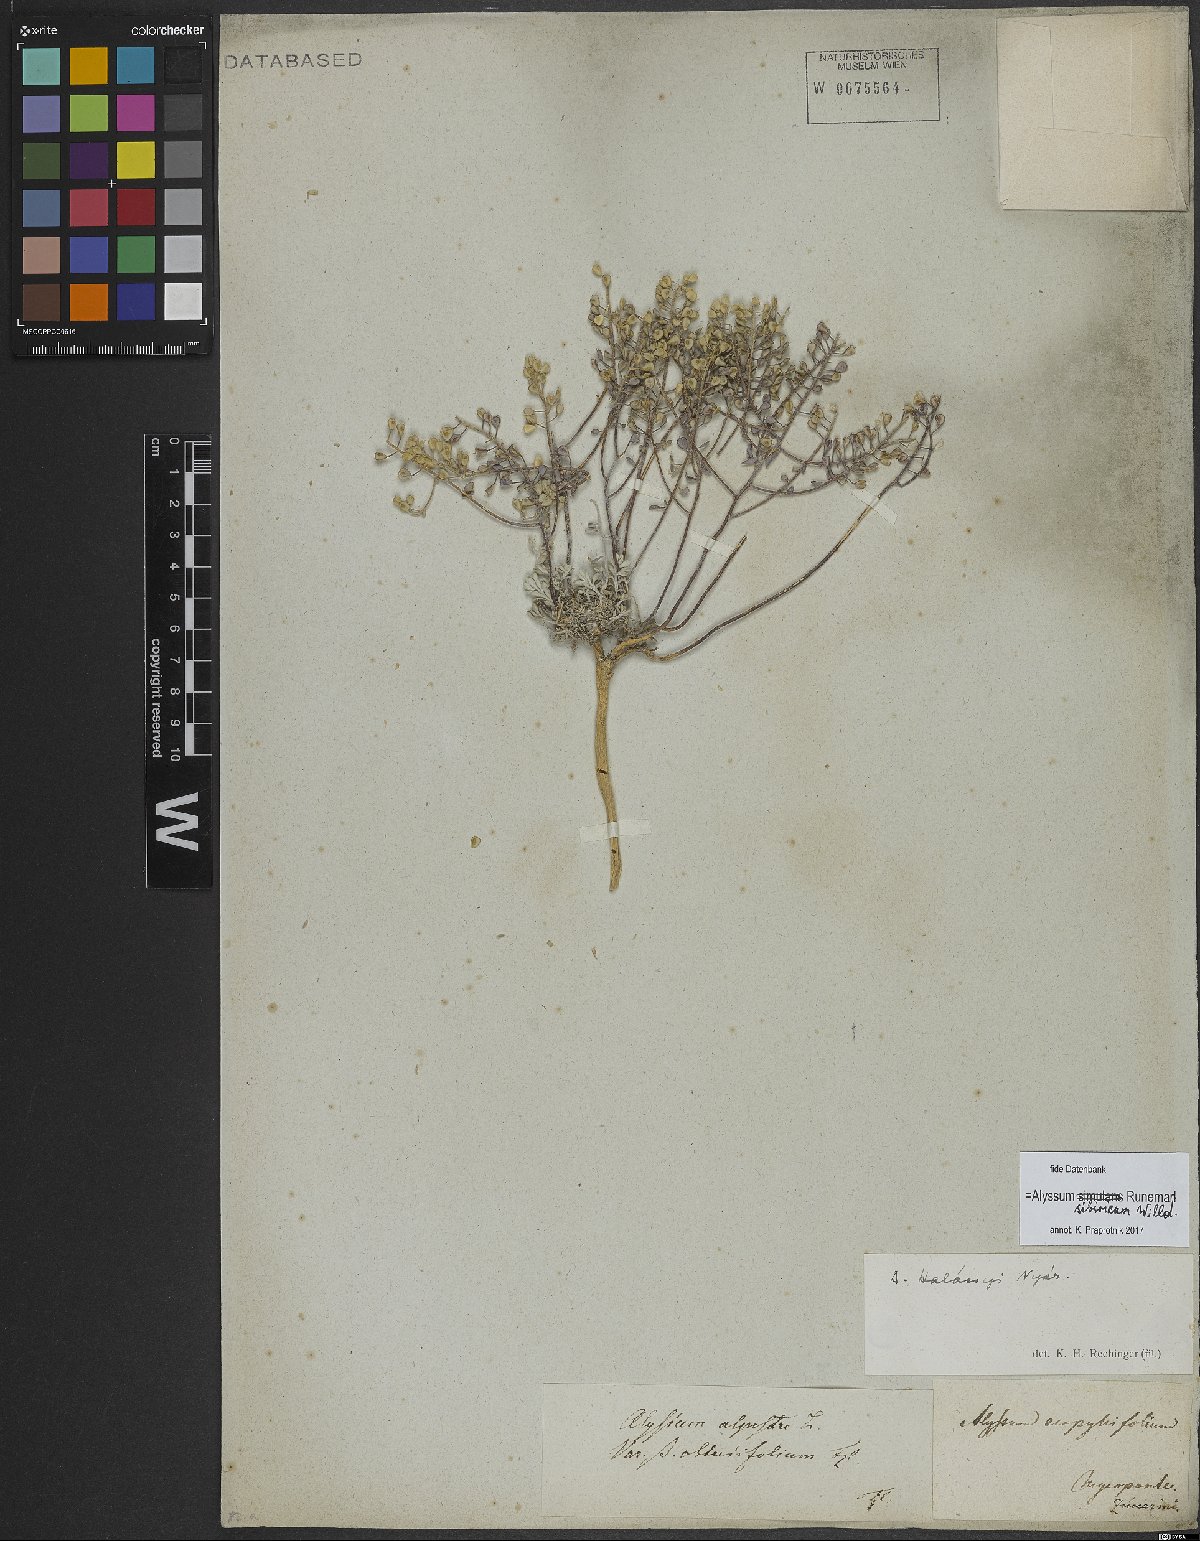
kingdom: Plantae
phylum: Tracheophyta
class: Magnoliopsida
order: Brassicales
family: Brassicaceae
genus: Odontarrhena
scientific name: Odontarrhena sibirica
